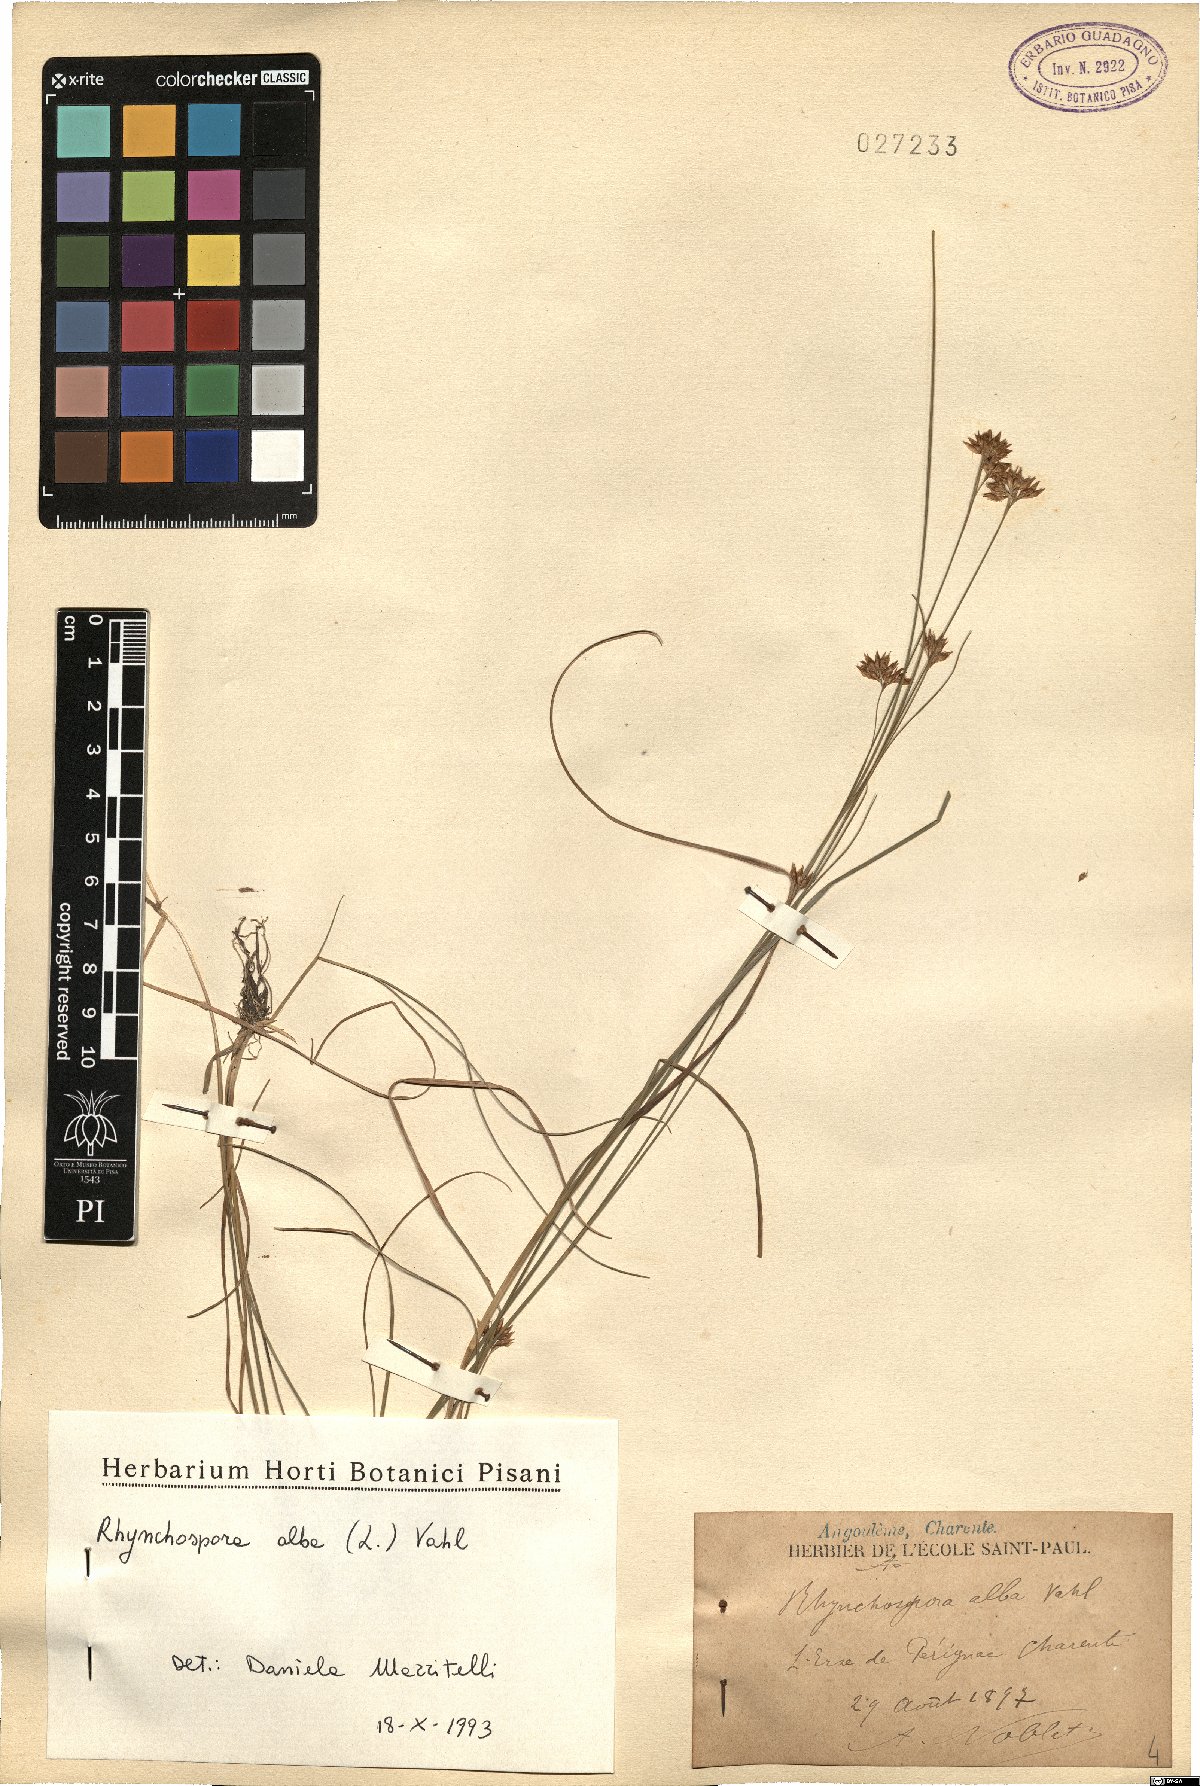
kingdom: Plantae
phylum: Tracheophyta
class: Liliopsida
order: Poales
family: Cyperaceae
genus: Rhynchospora
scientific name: Rhynchospora alba
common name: White beak-sedge
